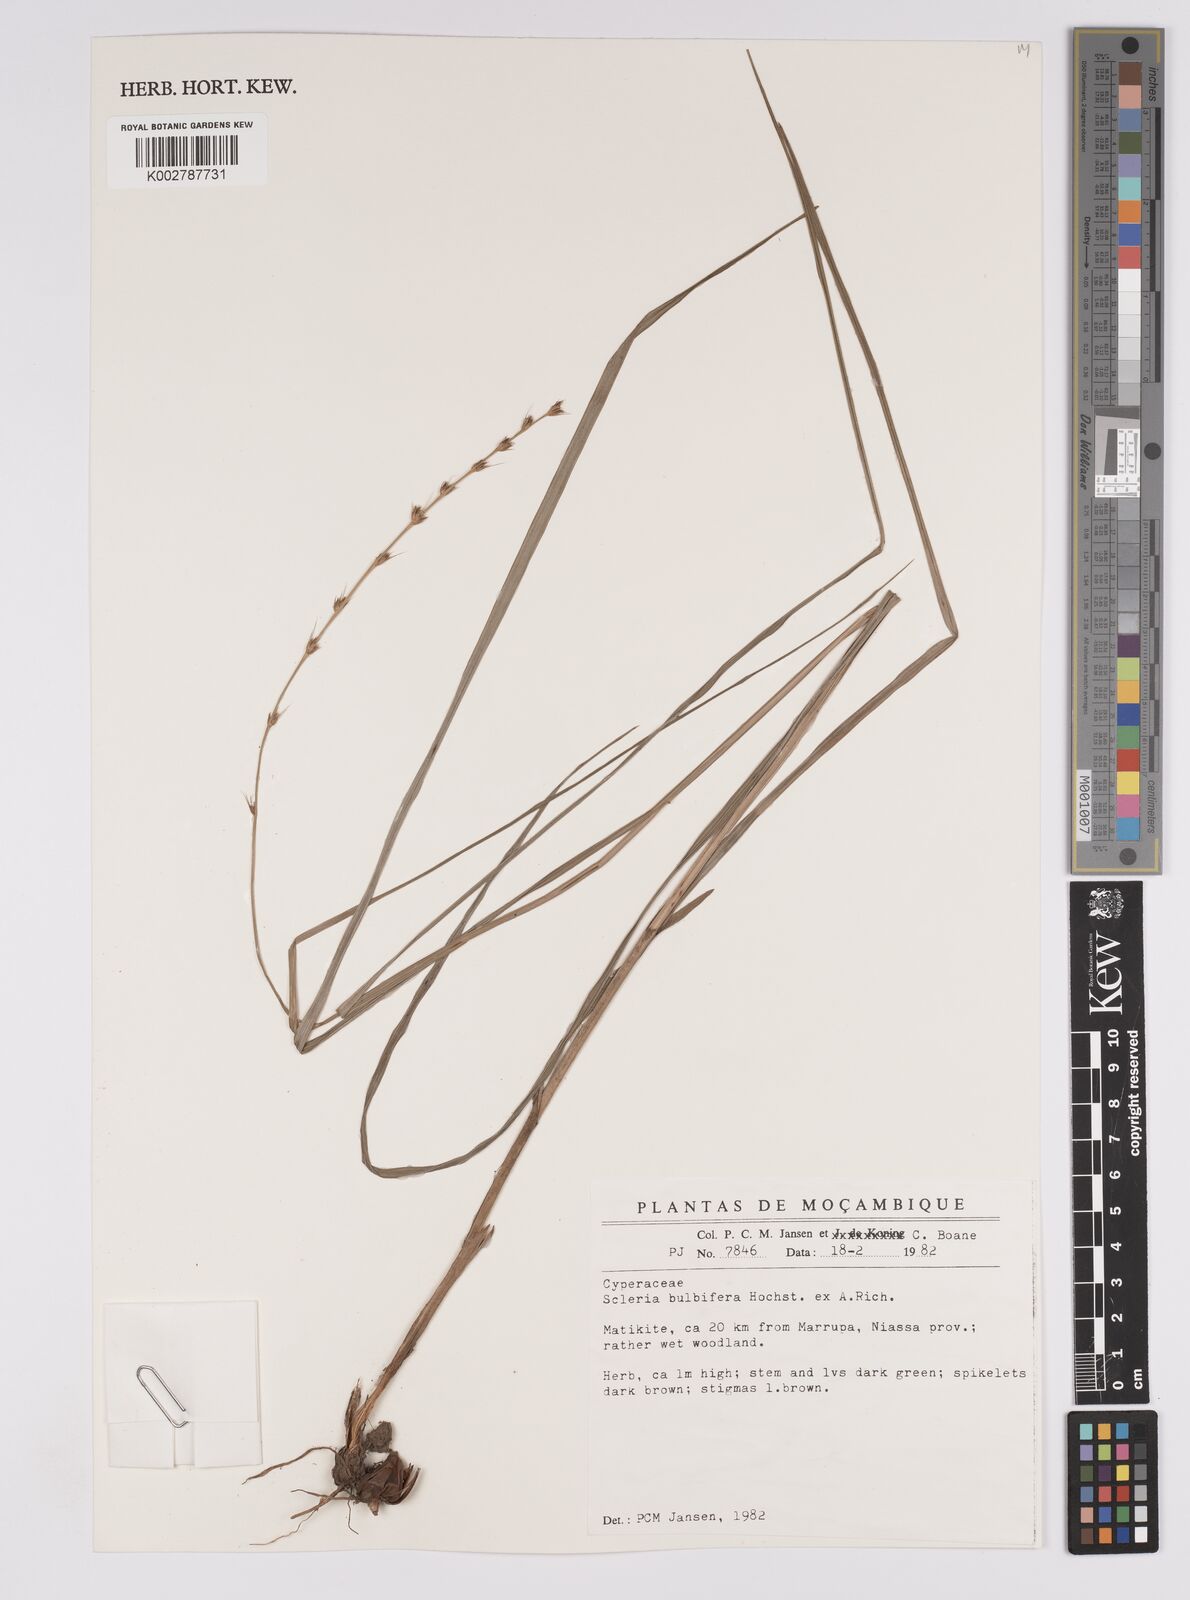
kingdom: Plantae
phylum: Tracheophyta
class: Liliopsida
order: Poales
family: Cyperaceae
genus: Scleria
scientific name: Scleria bulbifera
